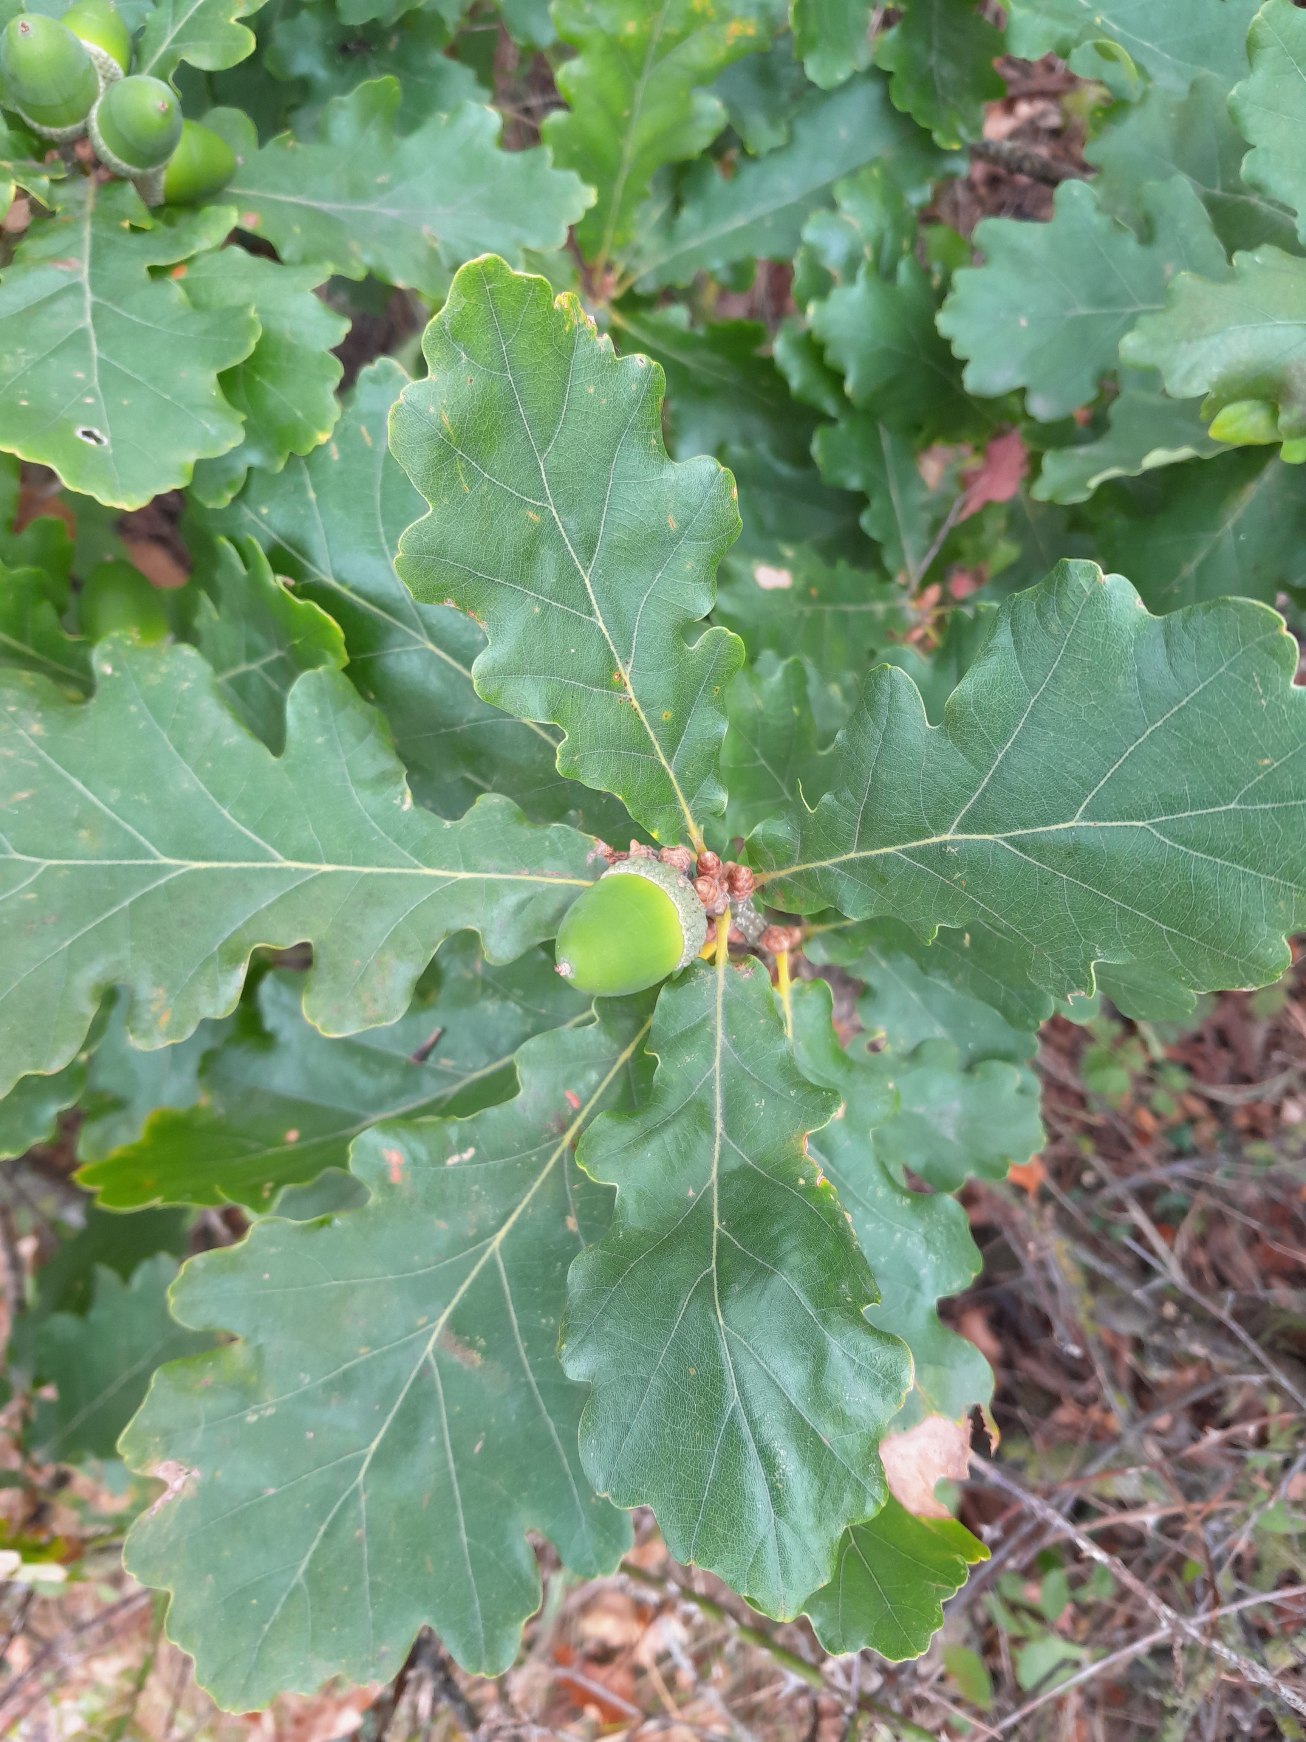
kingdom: Plantae
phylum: Tracheophyta
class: Magnoliopsida
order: Fagales
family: Fagaceae
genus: Quercus
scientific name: Quercus
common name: Vinter-eg × stilk-eg
